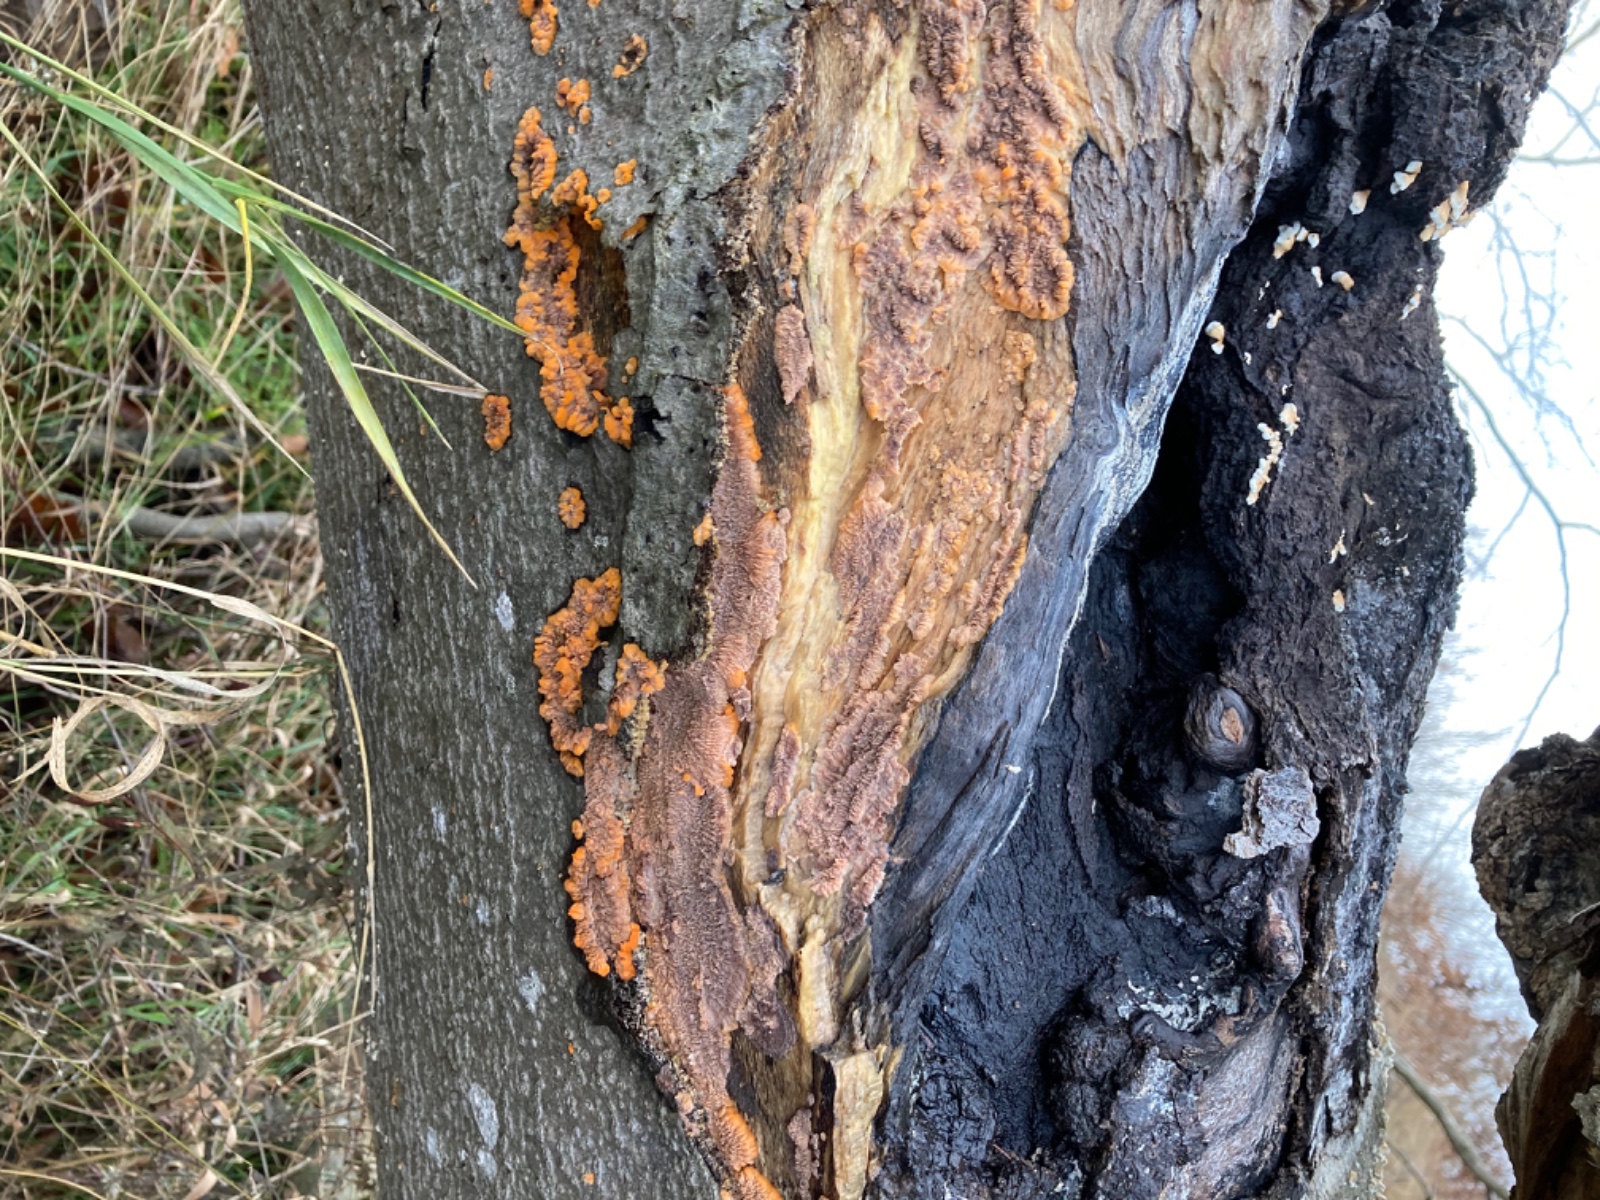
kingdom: Fungi
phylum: Basidiomycota
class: Agaricomycetes
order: Polyporales
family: Meruliaceae
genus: Phlebia
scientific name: Phlebia radiata
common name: stråle-åresvamp
